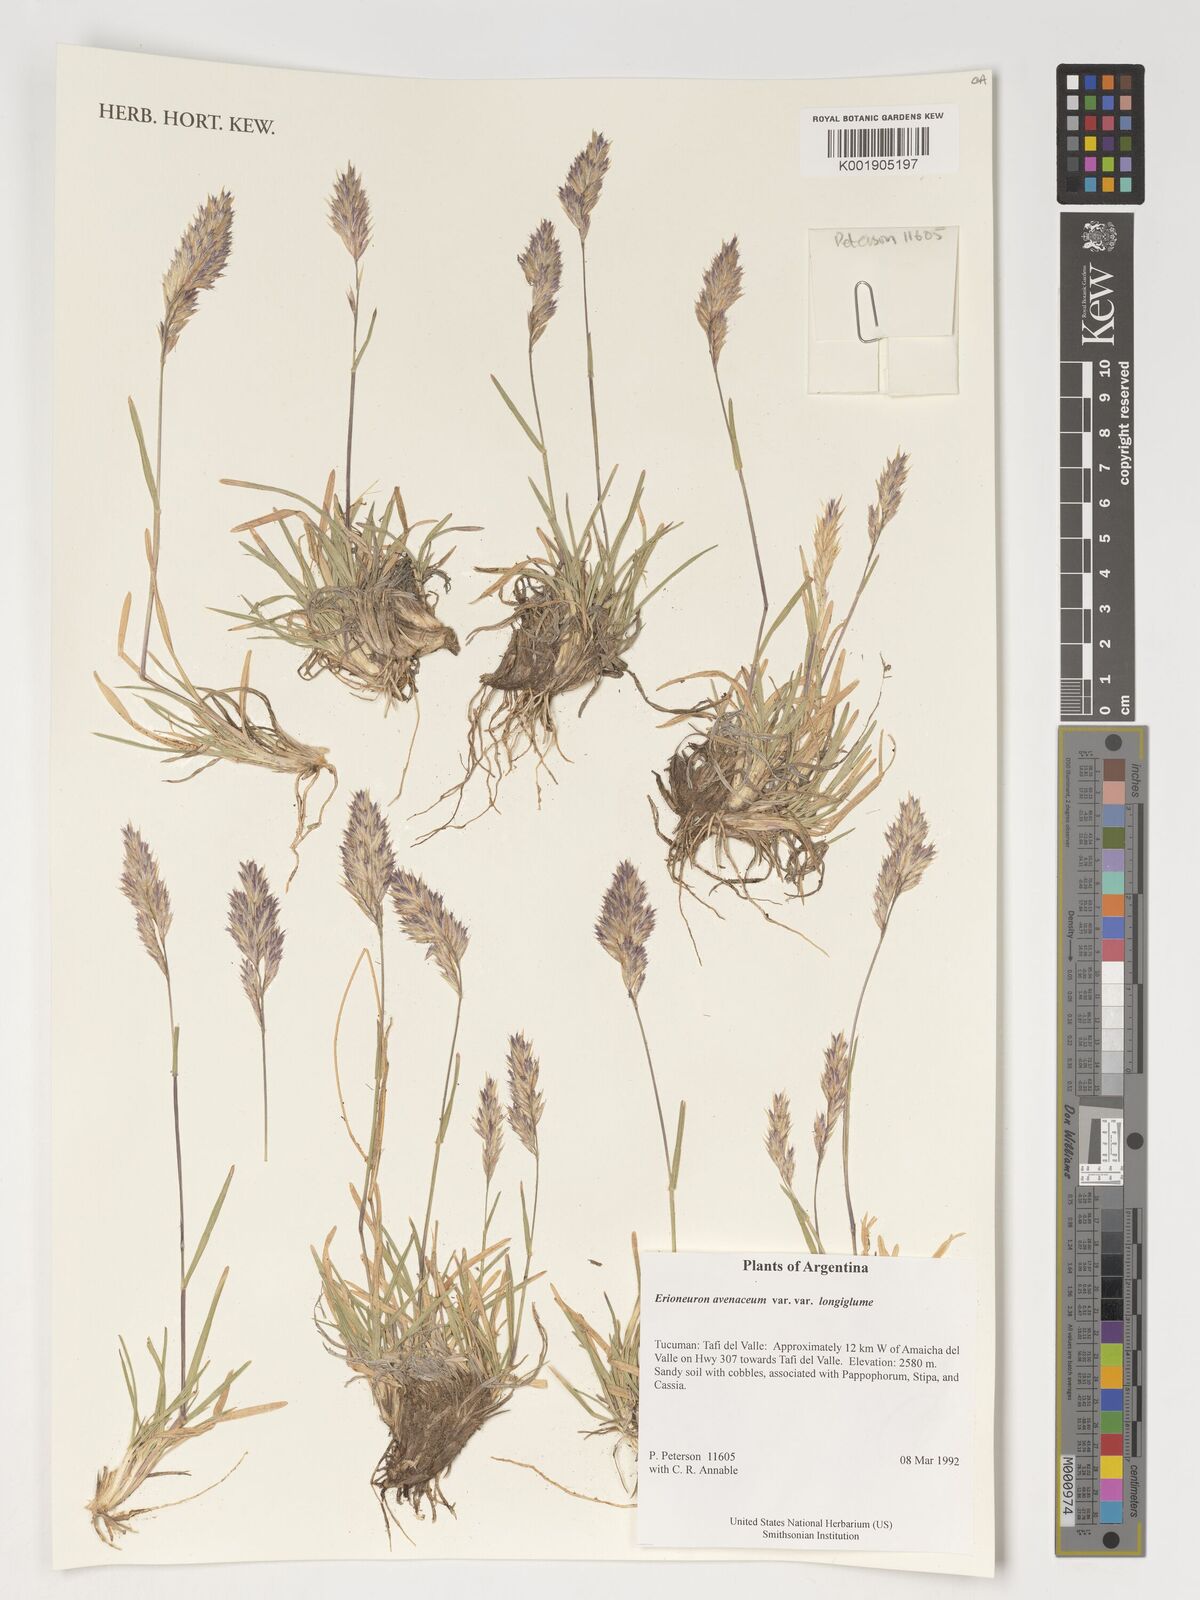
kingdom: Plantae
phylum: Tracheophyta
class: Liliopsida
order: Poales
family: Poaceae
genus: Erioneuron
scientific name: Erioneuron pilosum
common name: Hairy woolly grass
